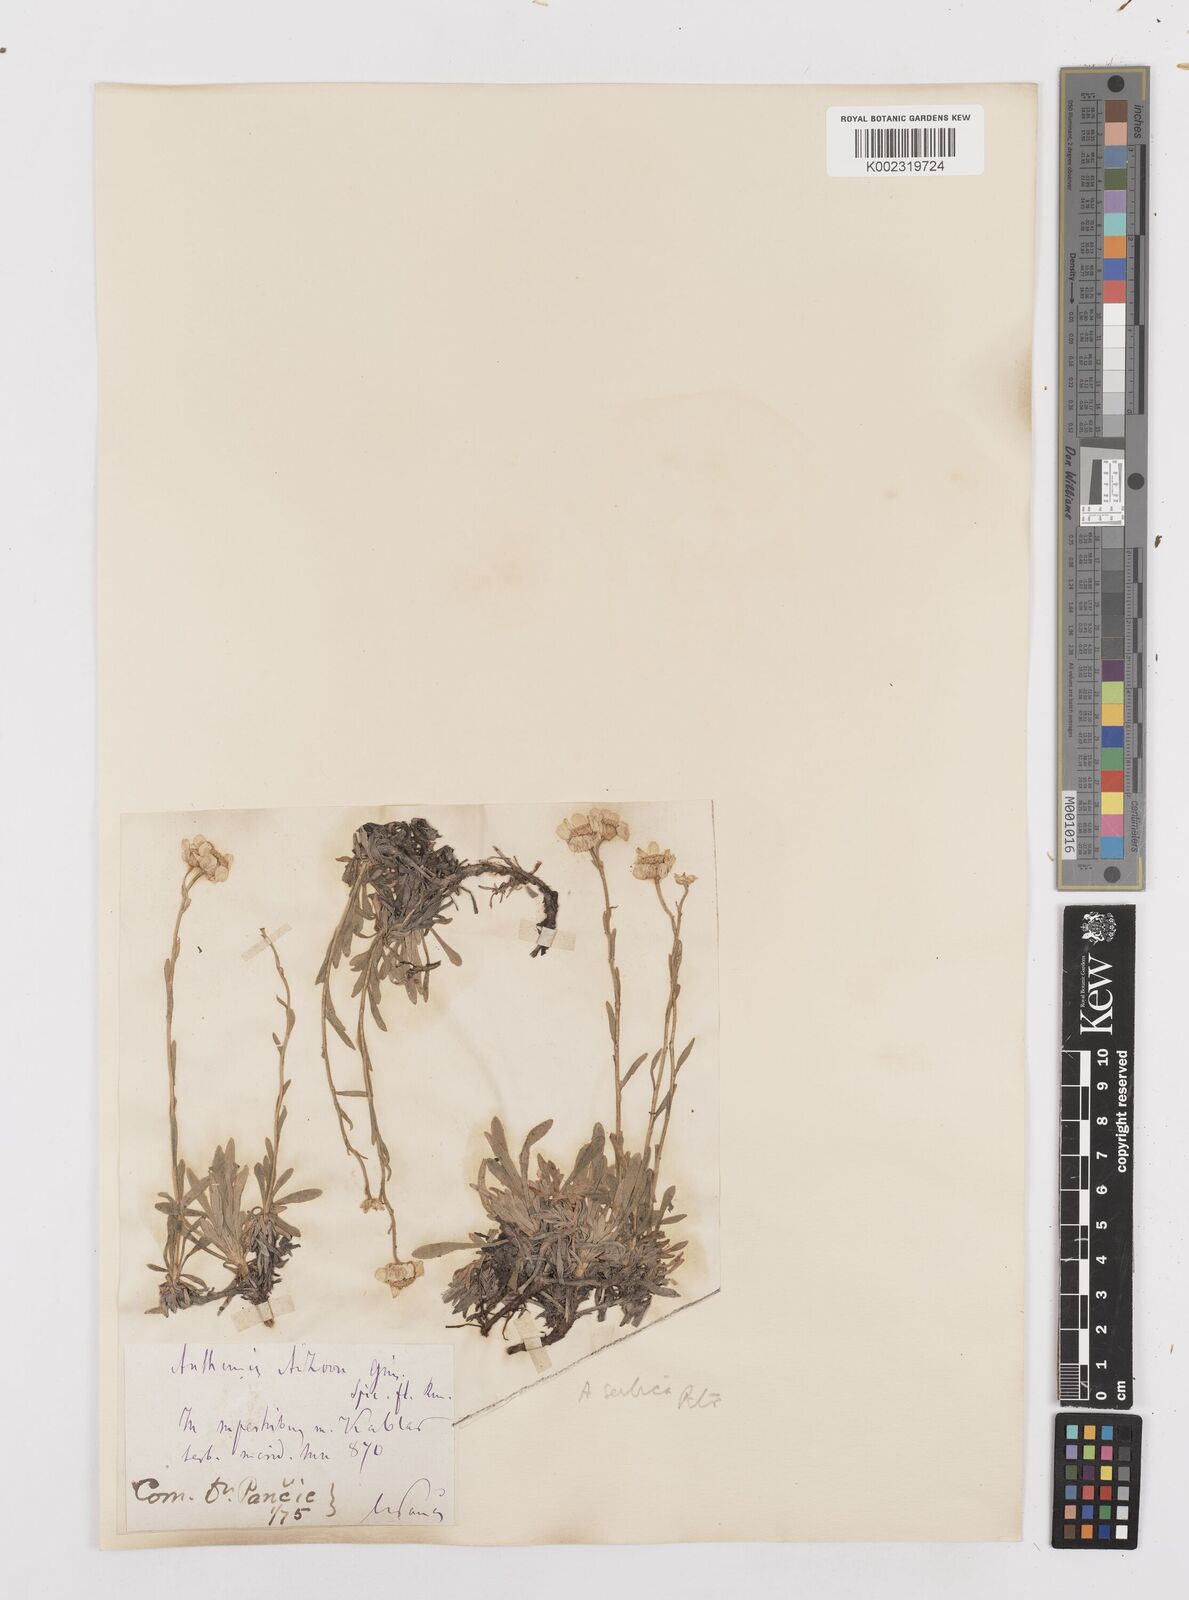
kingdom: Plantae
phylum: Tracheophyta
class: Magnoliopsida
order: Asterales
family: Asteraceae
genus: Achillea
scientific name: Achillea ageratifolia
